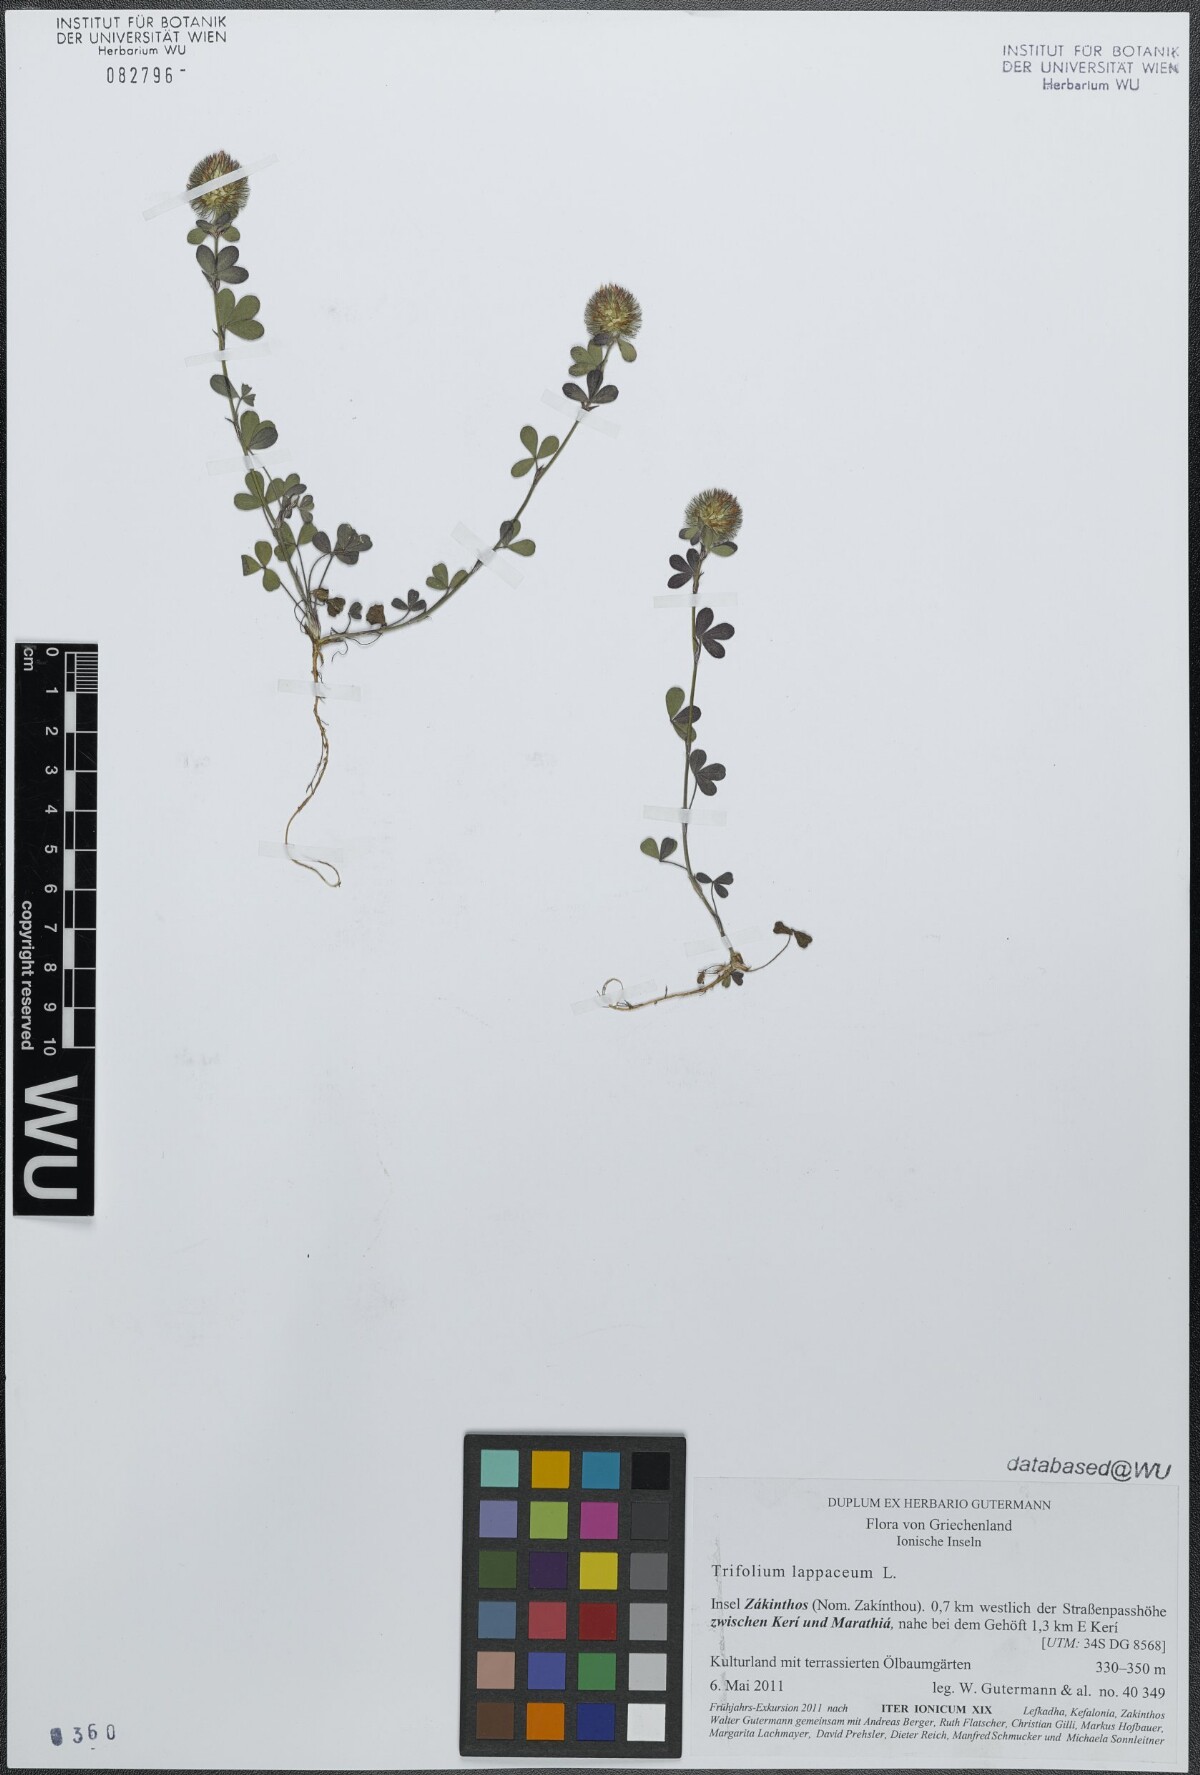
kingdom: Plantae
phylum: Tracheophyta
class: Magnoliopsida
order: Fabales
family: Fabaceae
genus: Trifolium
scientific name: Trifolium lappaceum
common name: Bur clover
